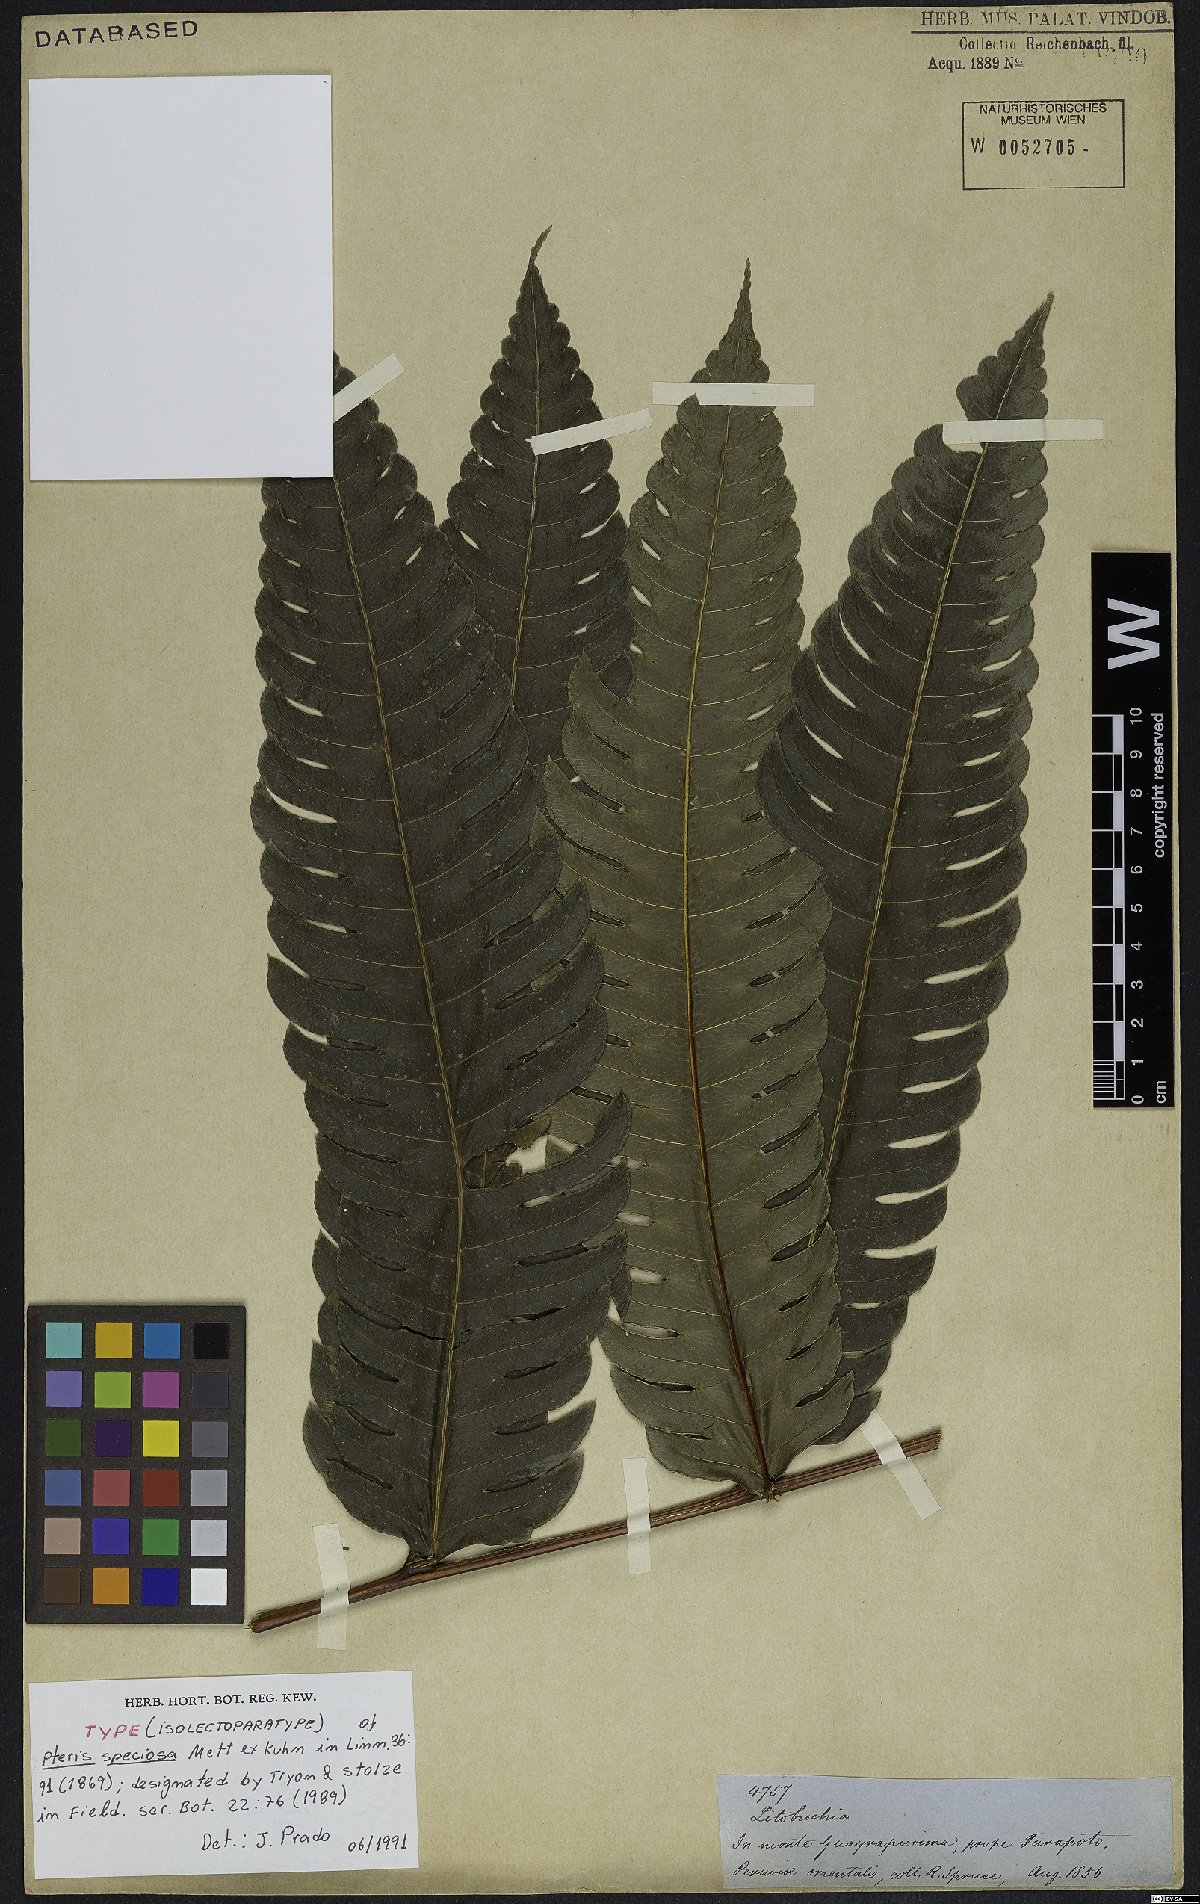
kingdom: Plantae
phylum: Tracheophyta
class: Polypodiopsida
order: Polypodiales
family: Pteridaceae
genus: Pteris
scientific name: Pteris speciosa
